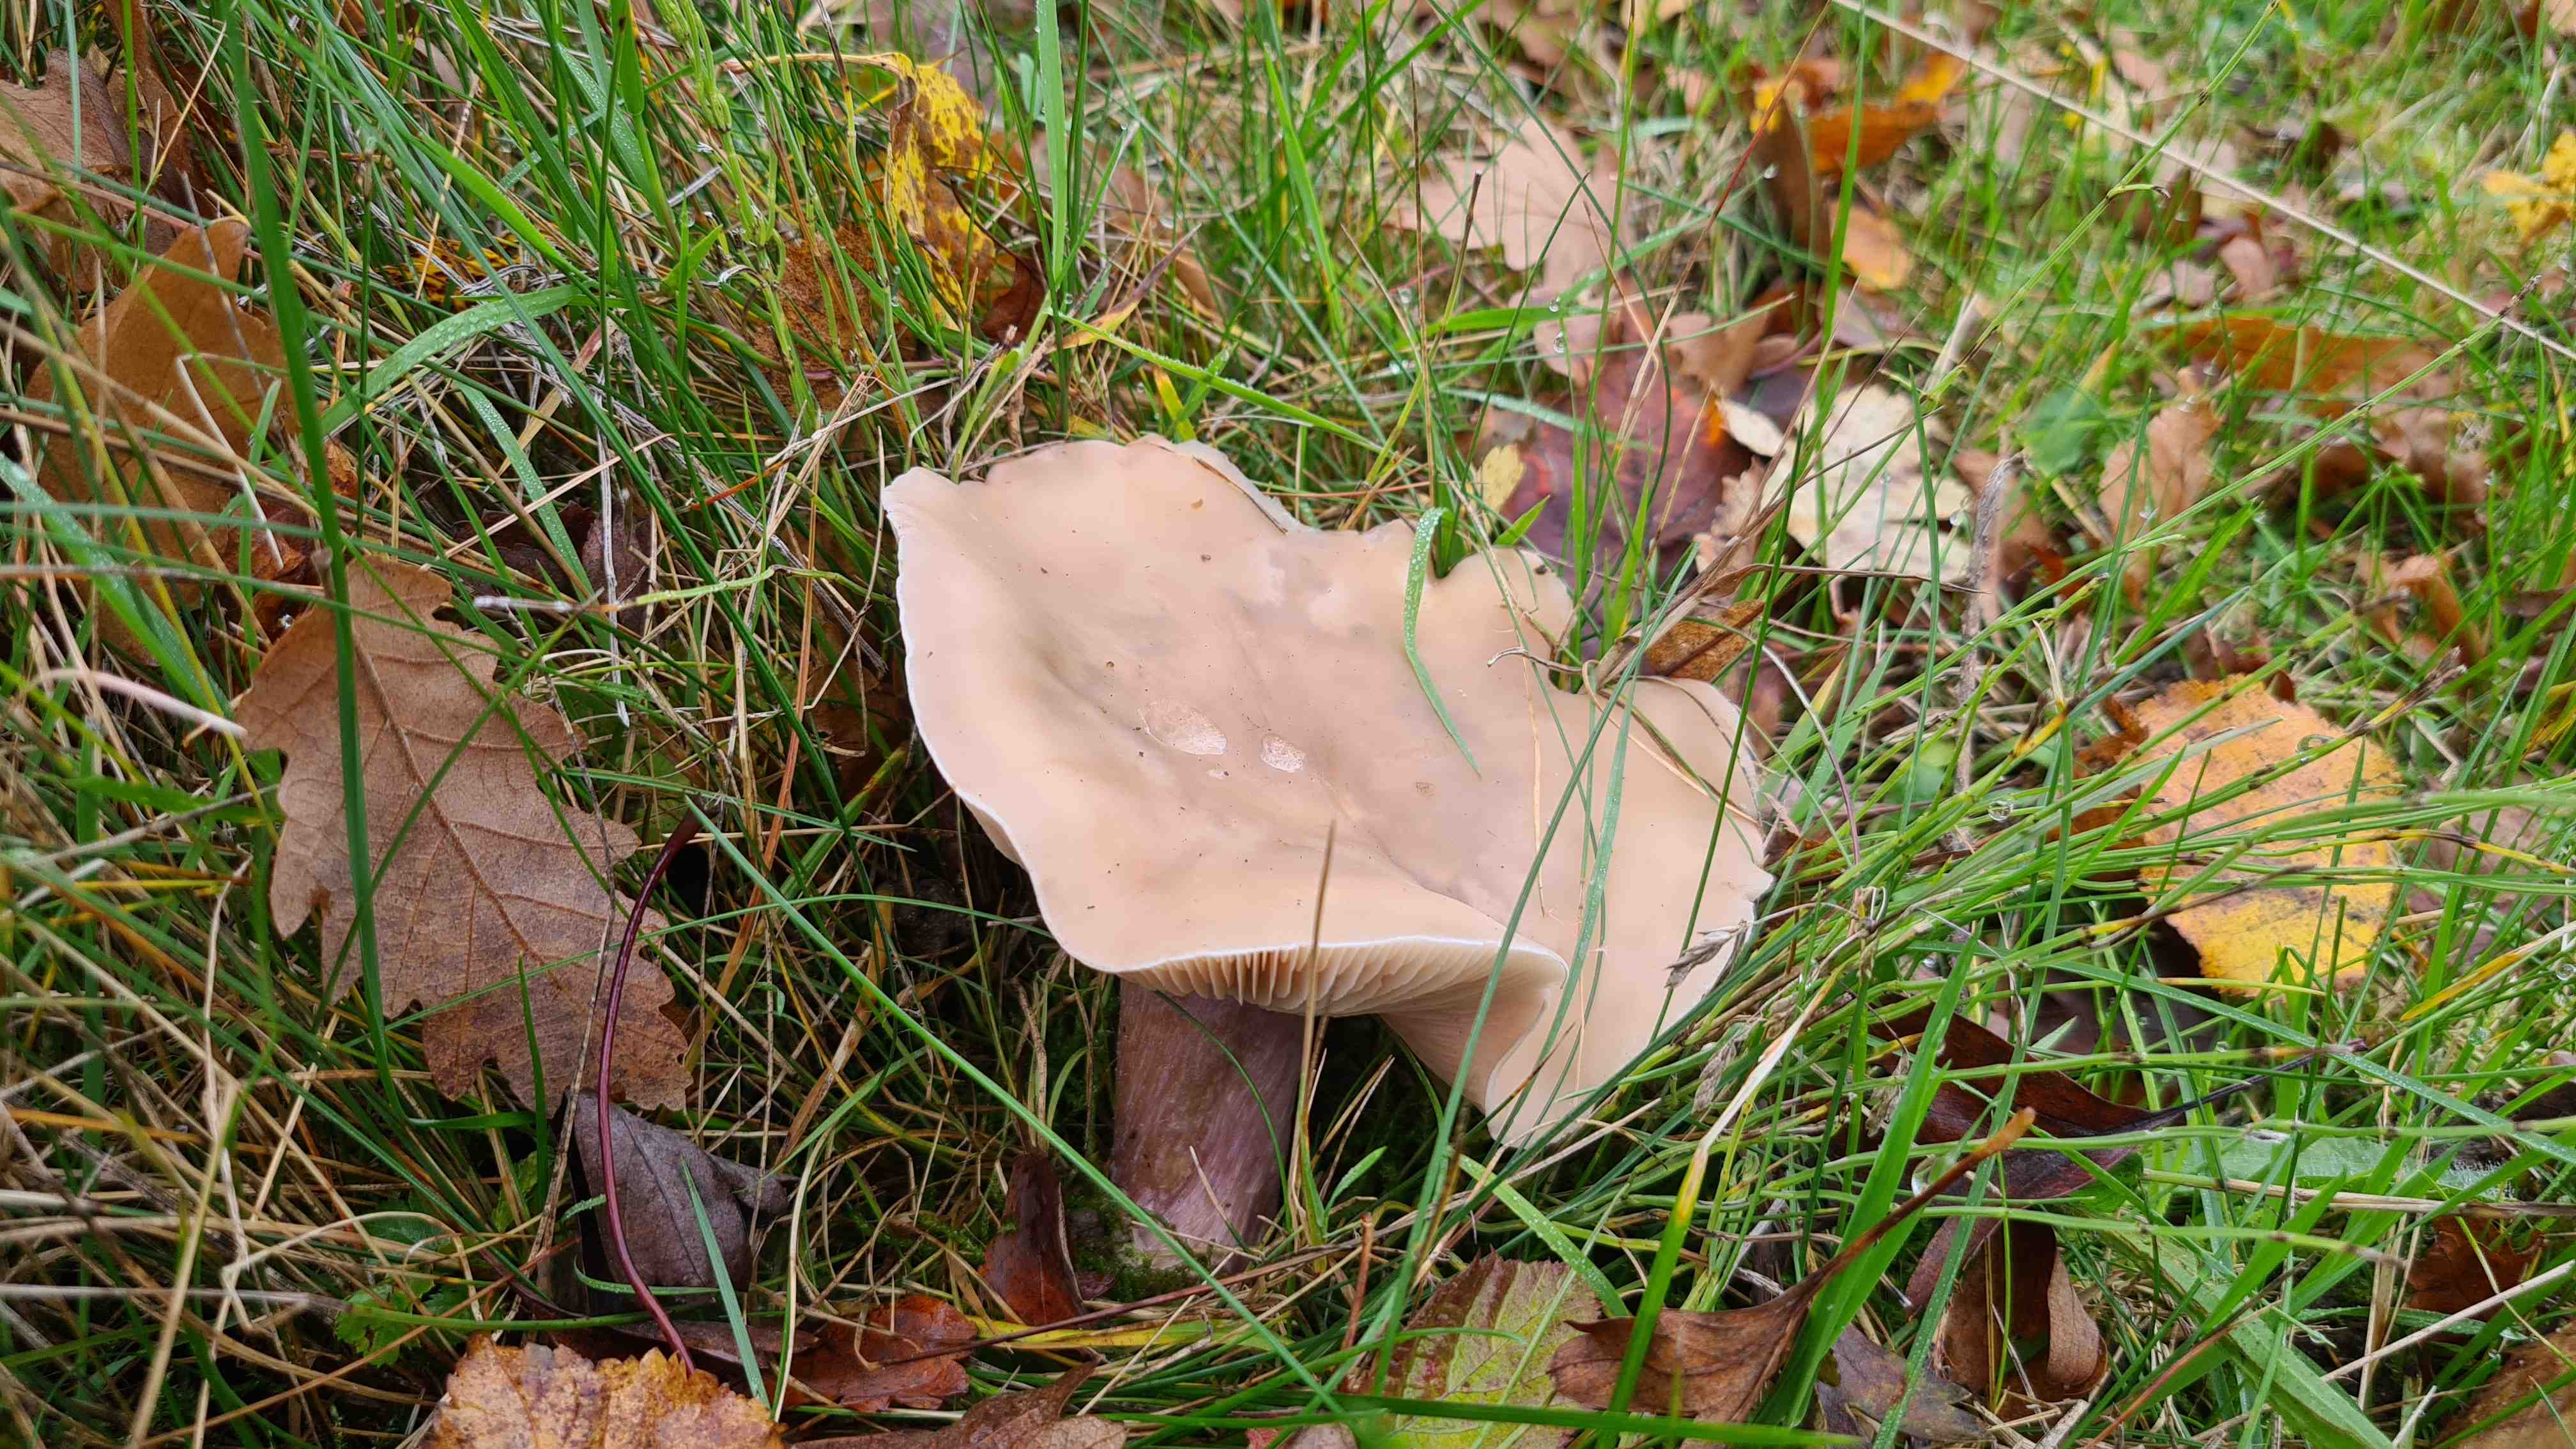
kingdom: Fungi
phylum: Basidiomycota
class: Agaricomycetes
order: Agaricales
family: Tricholomataceae
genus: Lepista
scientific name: Lepista personata
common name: bleg hekseringshat
